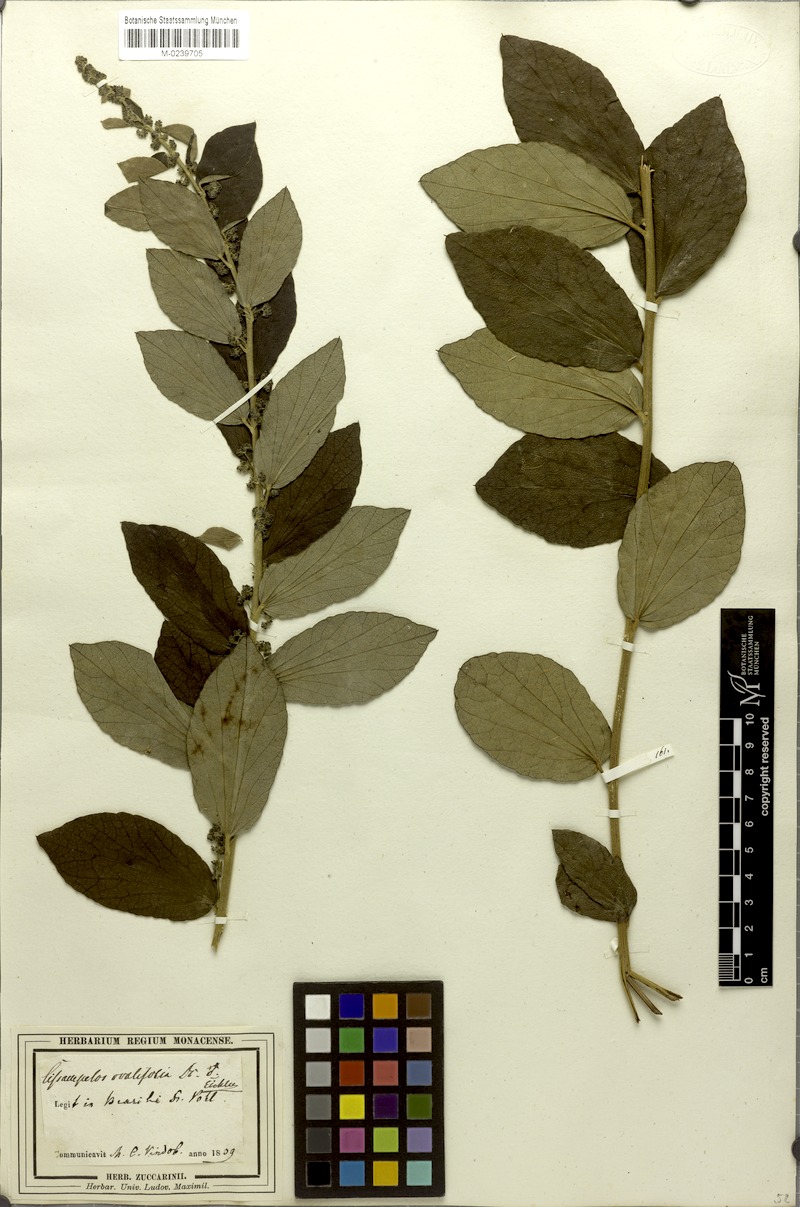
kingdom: Plantae
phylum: Tracheophyta
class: Magnoliopsida
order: Ranunculales
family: Menispermaceae
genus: Cissampelos
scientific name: Cissampelos ovalifolia
